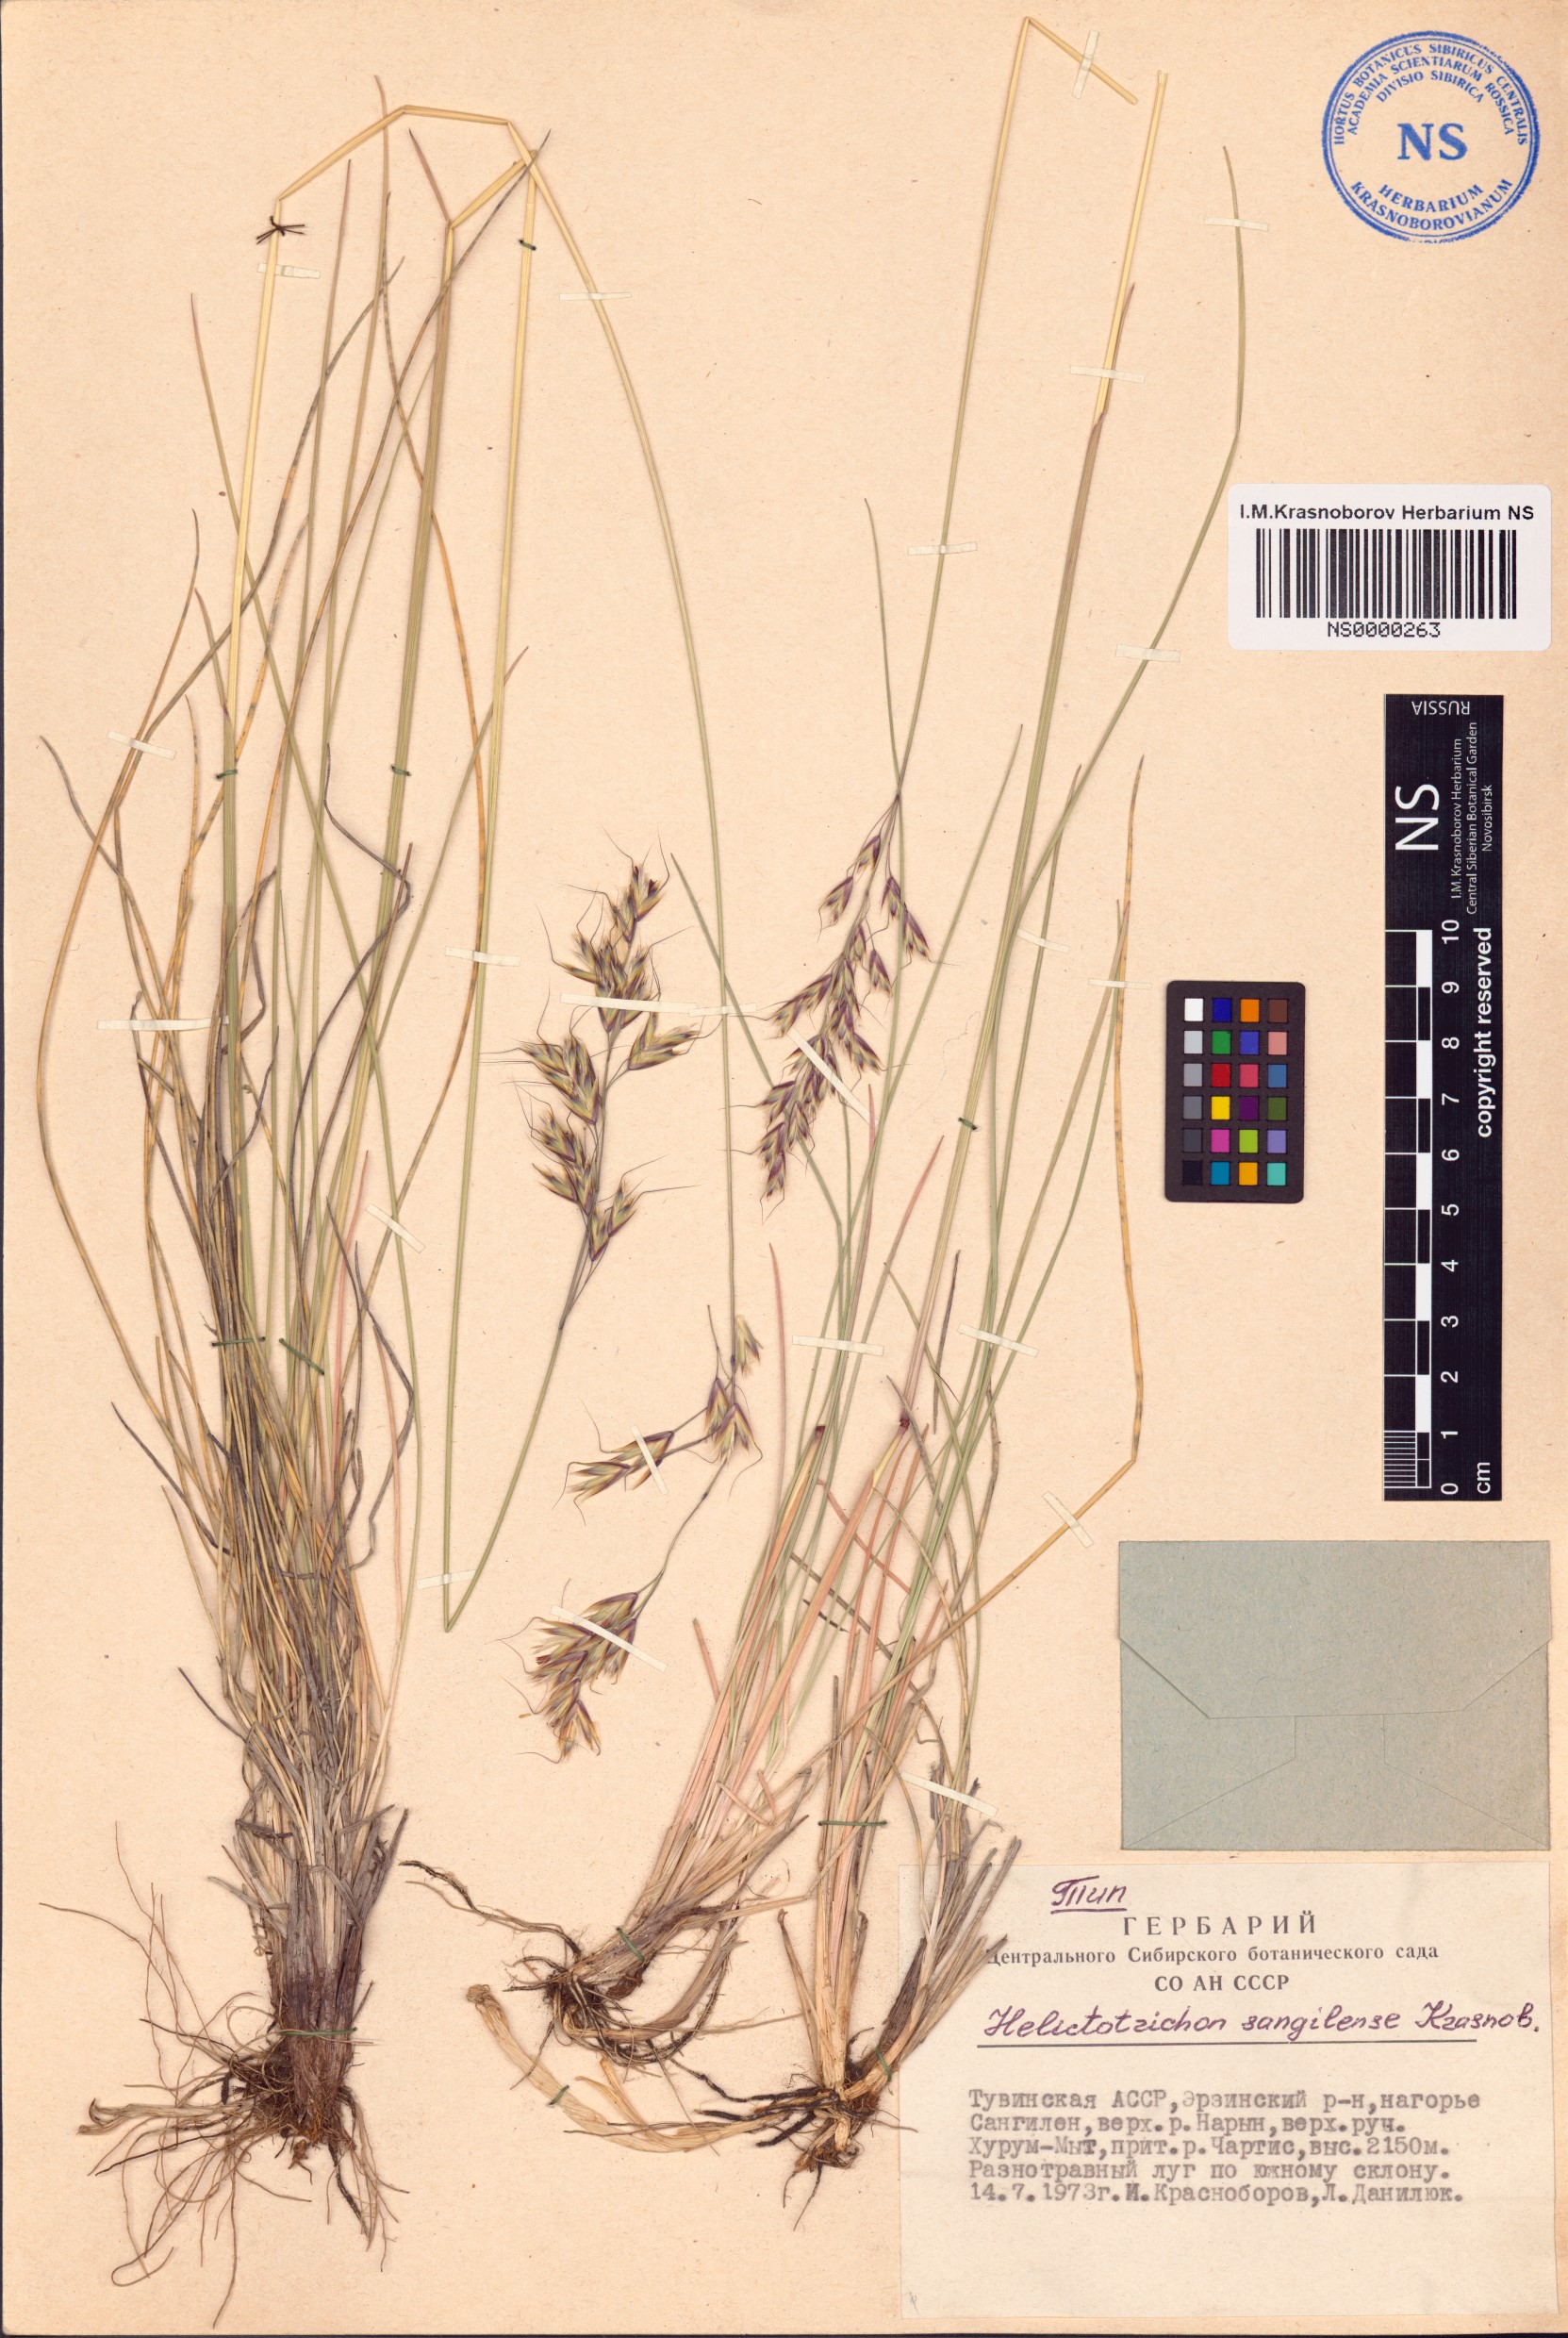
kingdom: Plantae
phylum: Tracheophyta
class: Liliopsida
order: Poales
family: Poaceae
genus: Helictotrichon
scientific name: Helictotrichon sangilense
